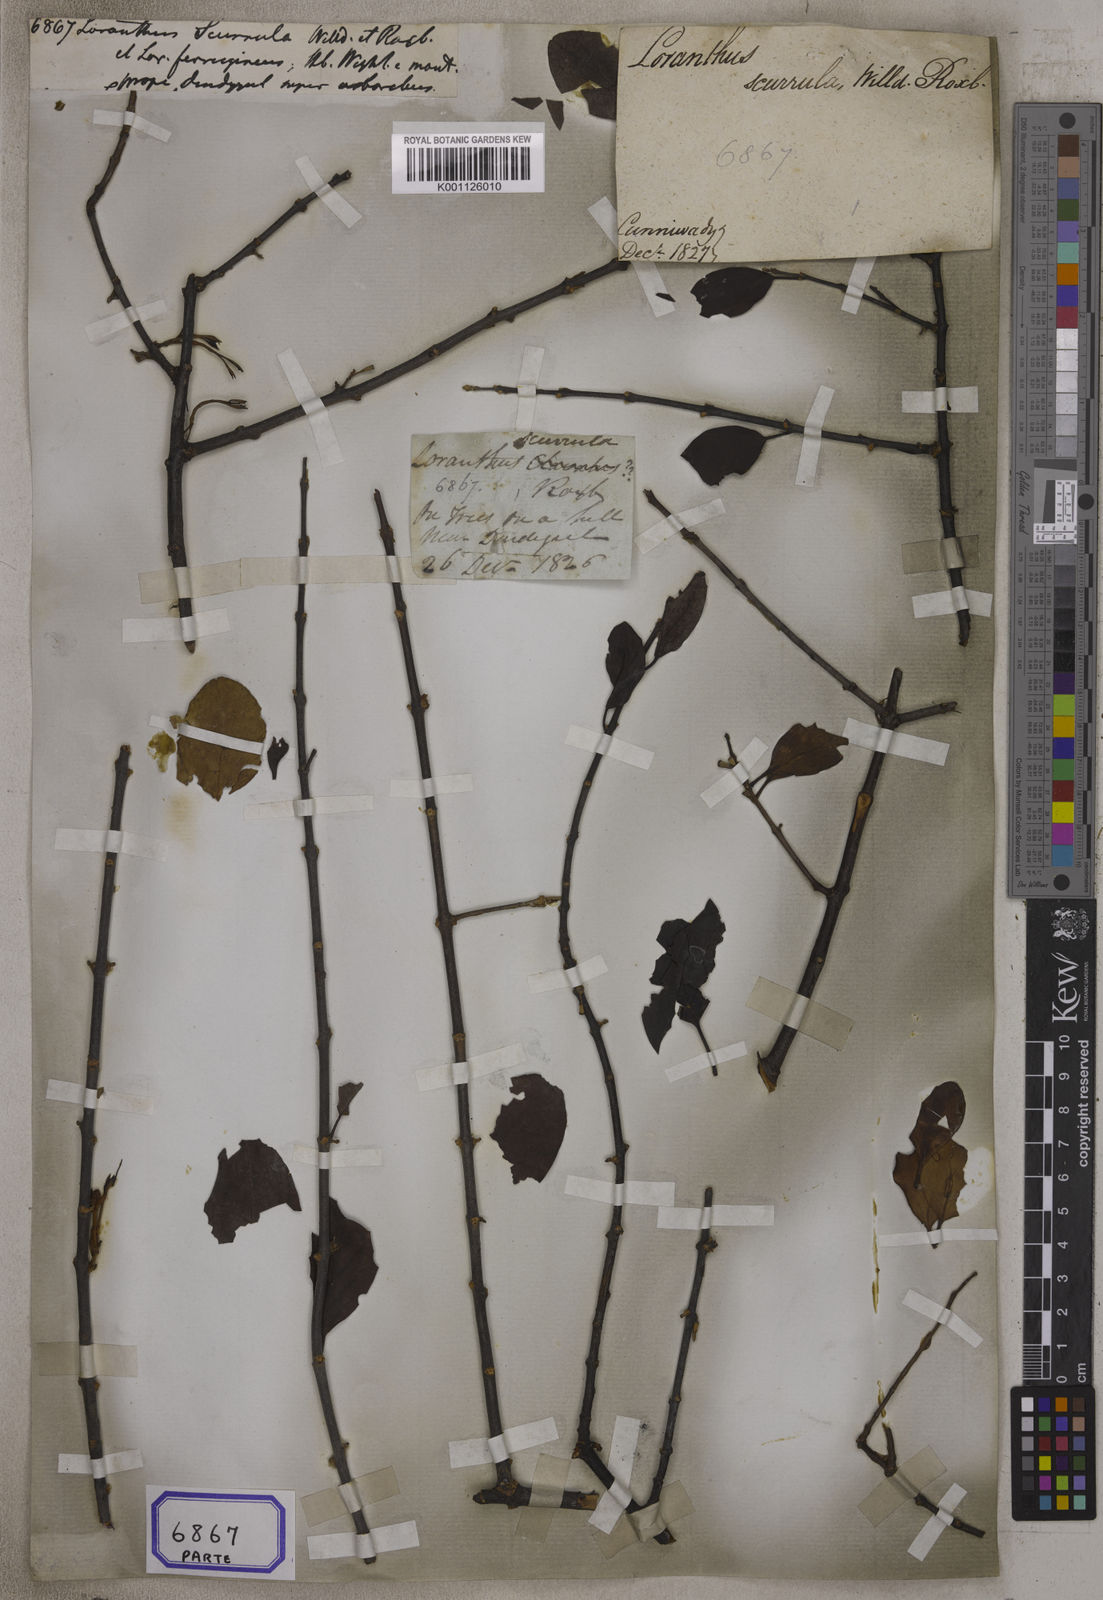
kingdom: Plantae
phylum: Tracheophyta
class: Magnoliopsida
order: Santalales
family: Loranthaceae
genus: Scurrula
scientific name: Scurrula parasitica
